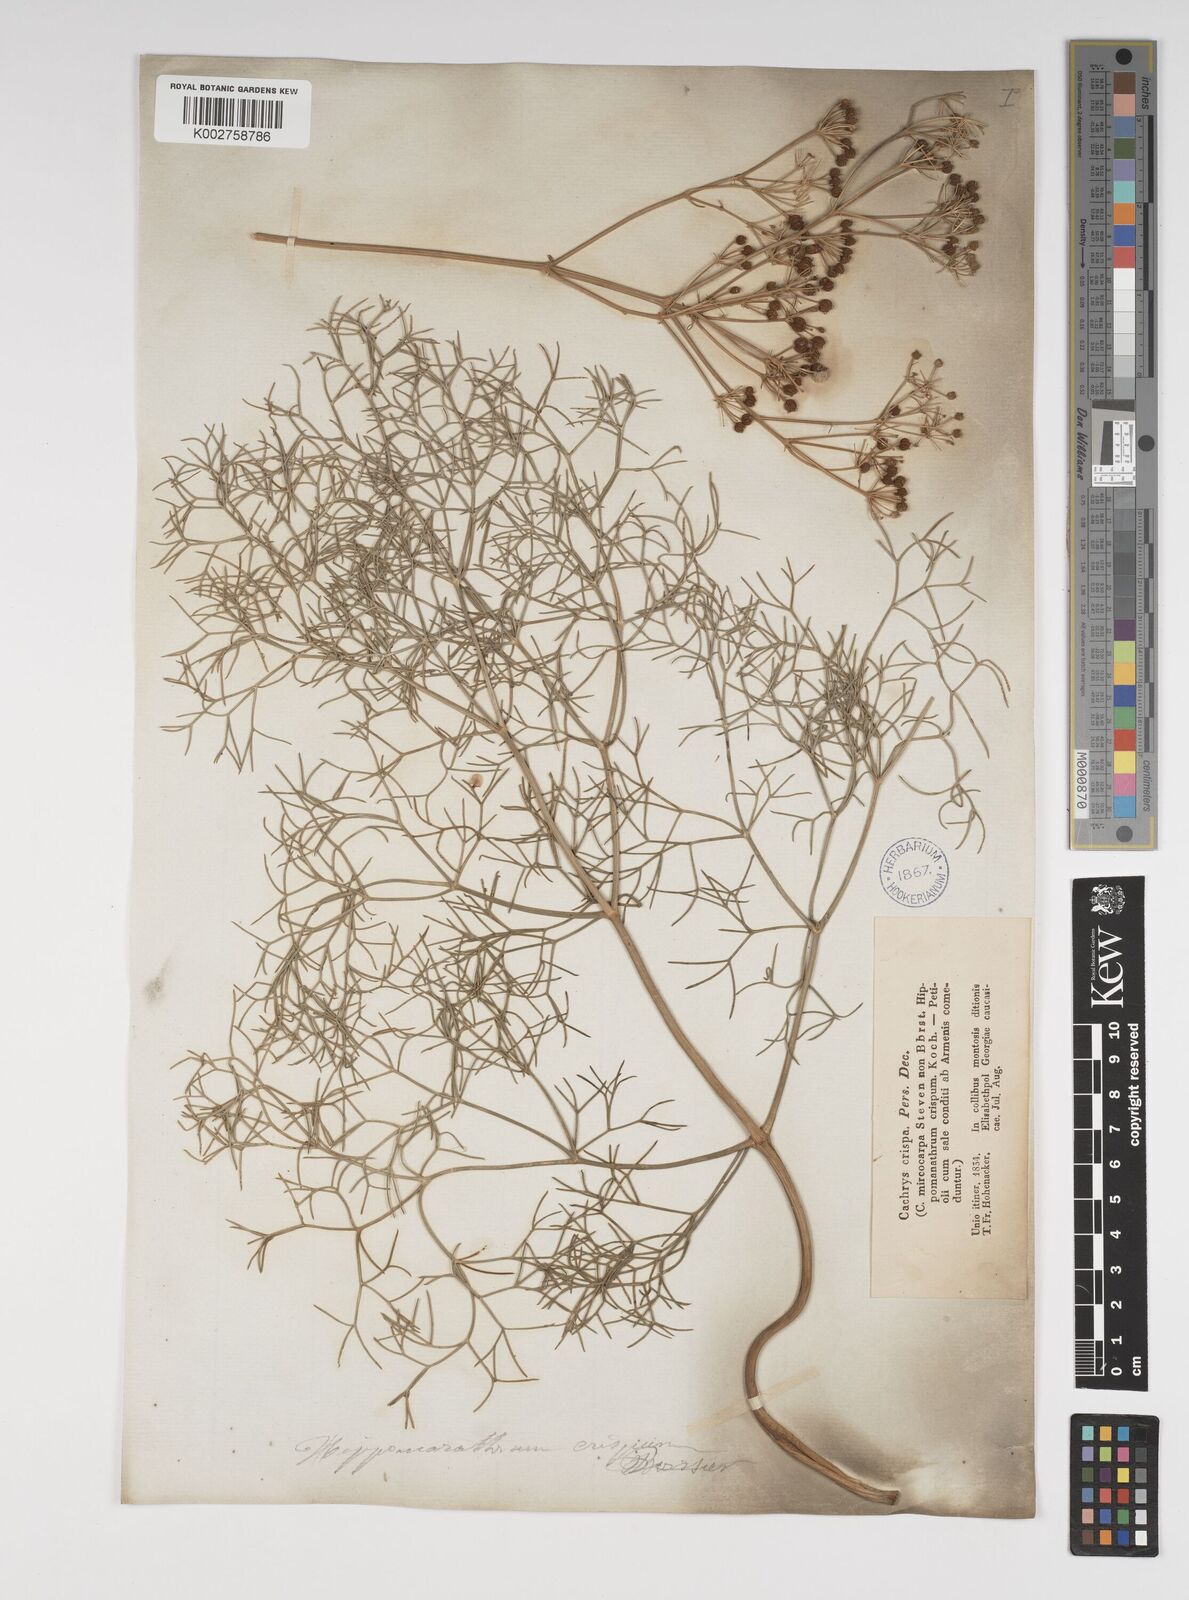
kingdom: Plantae
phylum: Tracheophyta
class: Magnoliopsida
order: Apiales
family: Apiaceae
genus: Bilacunaria
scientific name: Bilacunaria microcarpa
